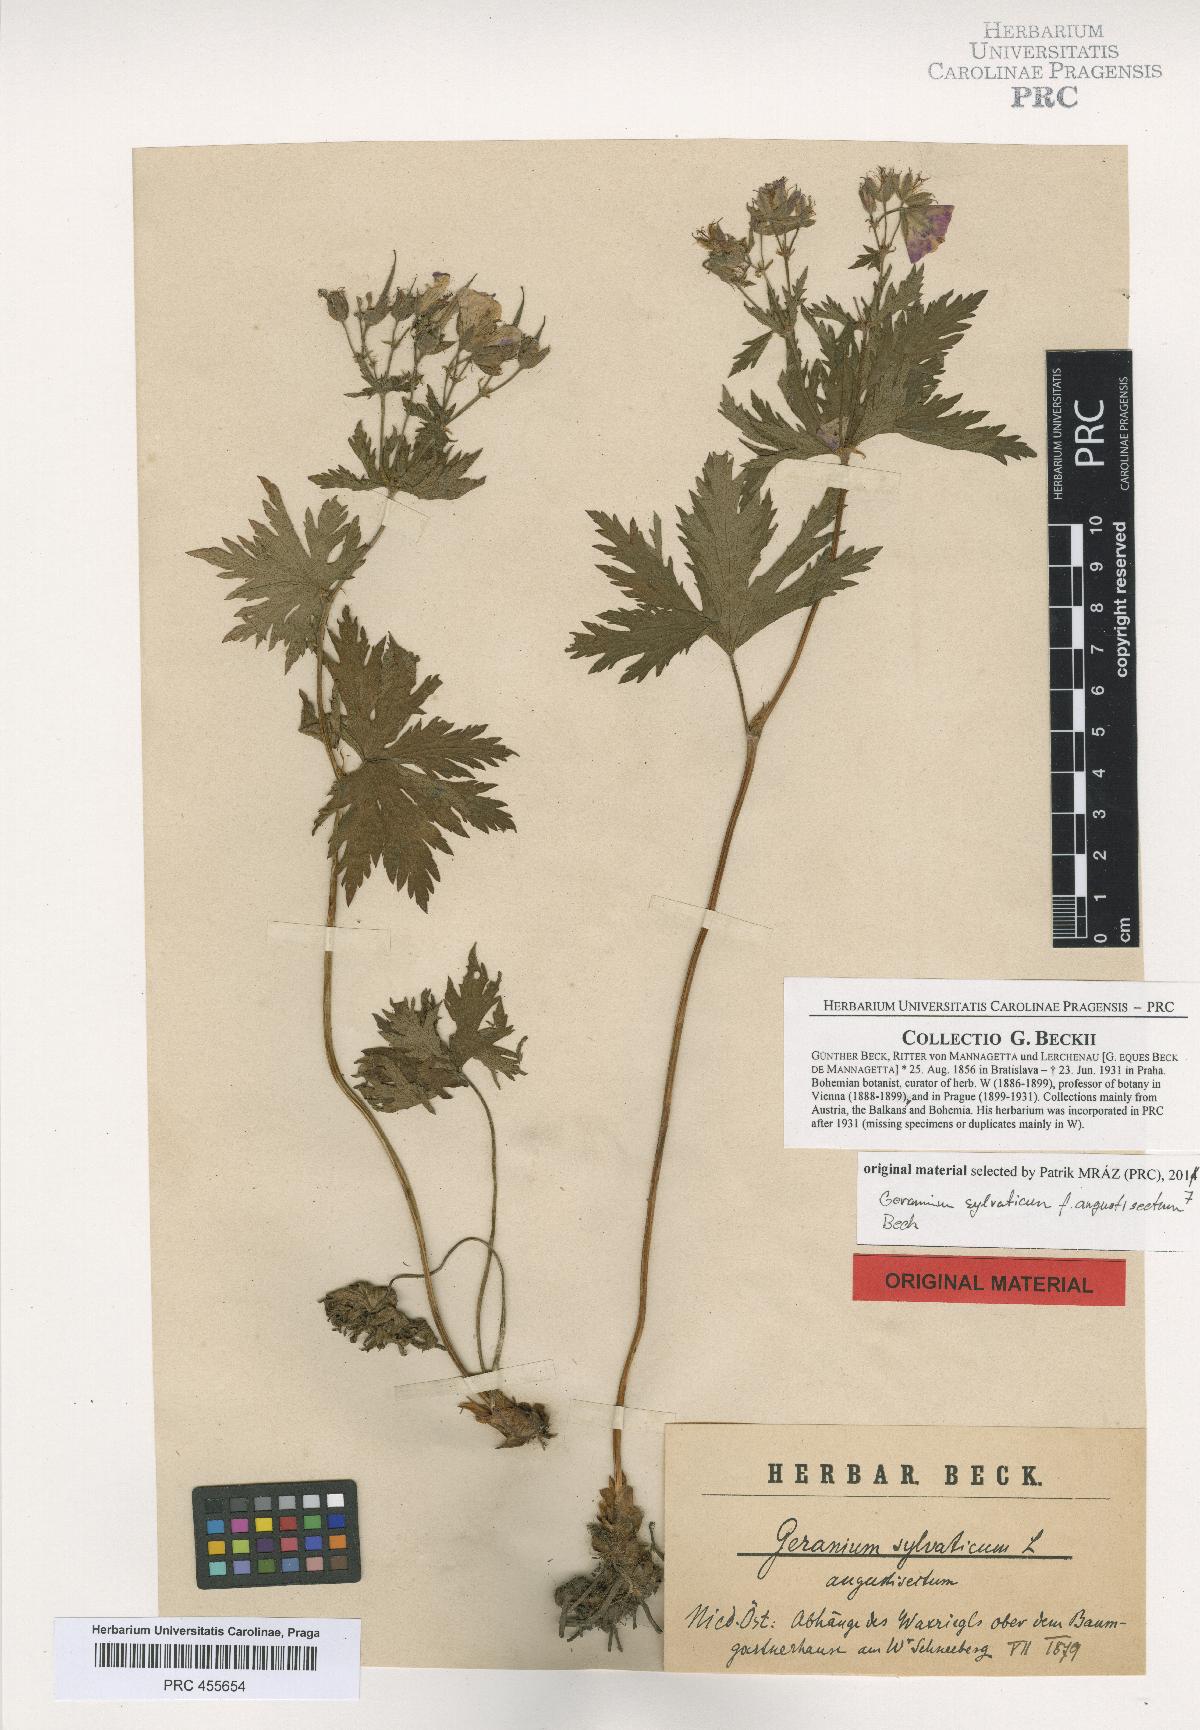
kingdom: Plantae
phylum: Tracheophyta
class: Magnoliopsida
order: Geraniales
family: Geraniaceae
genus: Geranium
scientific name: Geranium sylvaticum
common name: Wood crane's-bill
